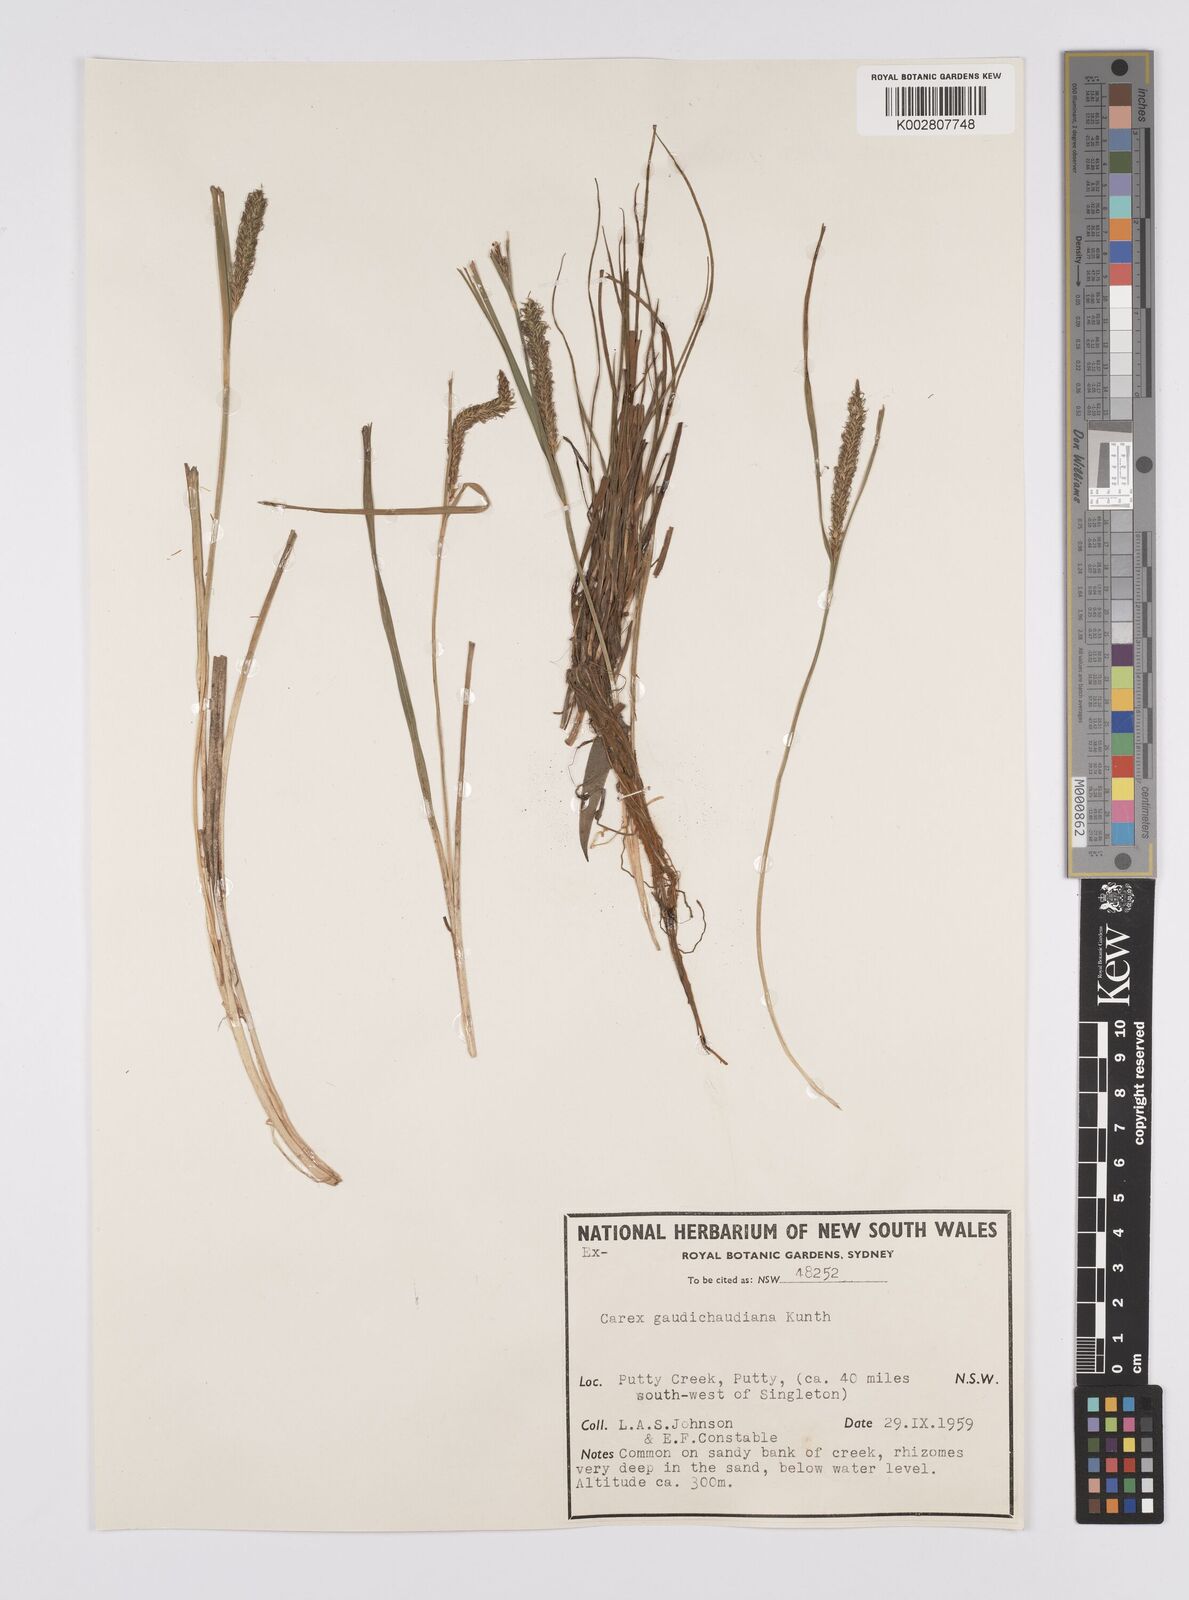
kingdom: Plantae
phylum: Tracheophyta
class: Liliopsida
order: Poales
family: Cyperaceae
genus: Carex
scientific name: Carex gaudichaudiana
